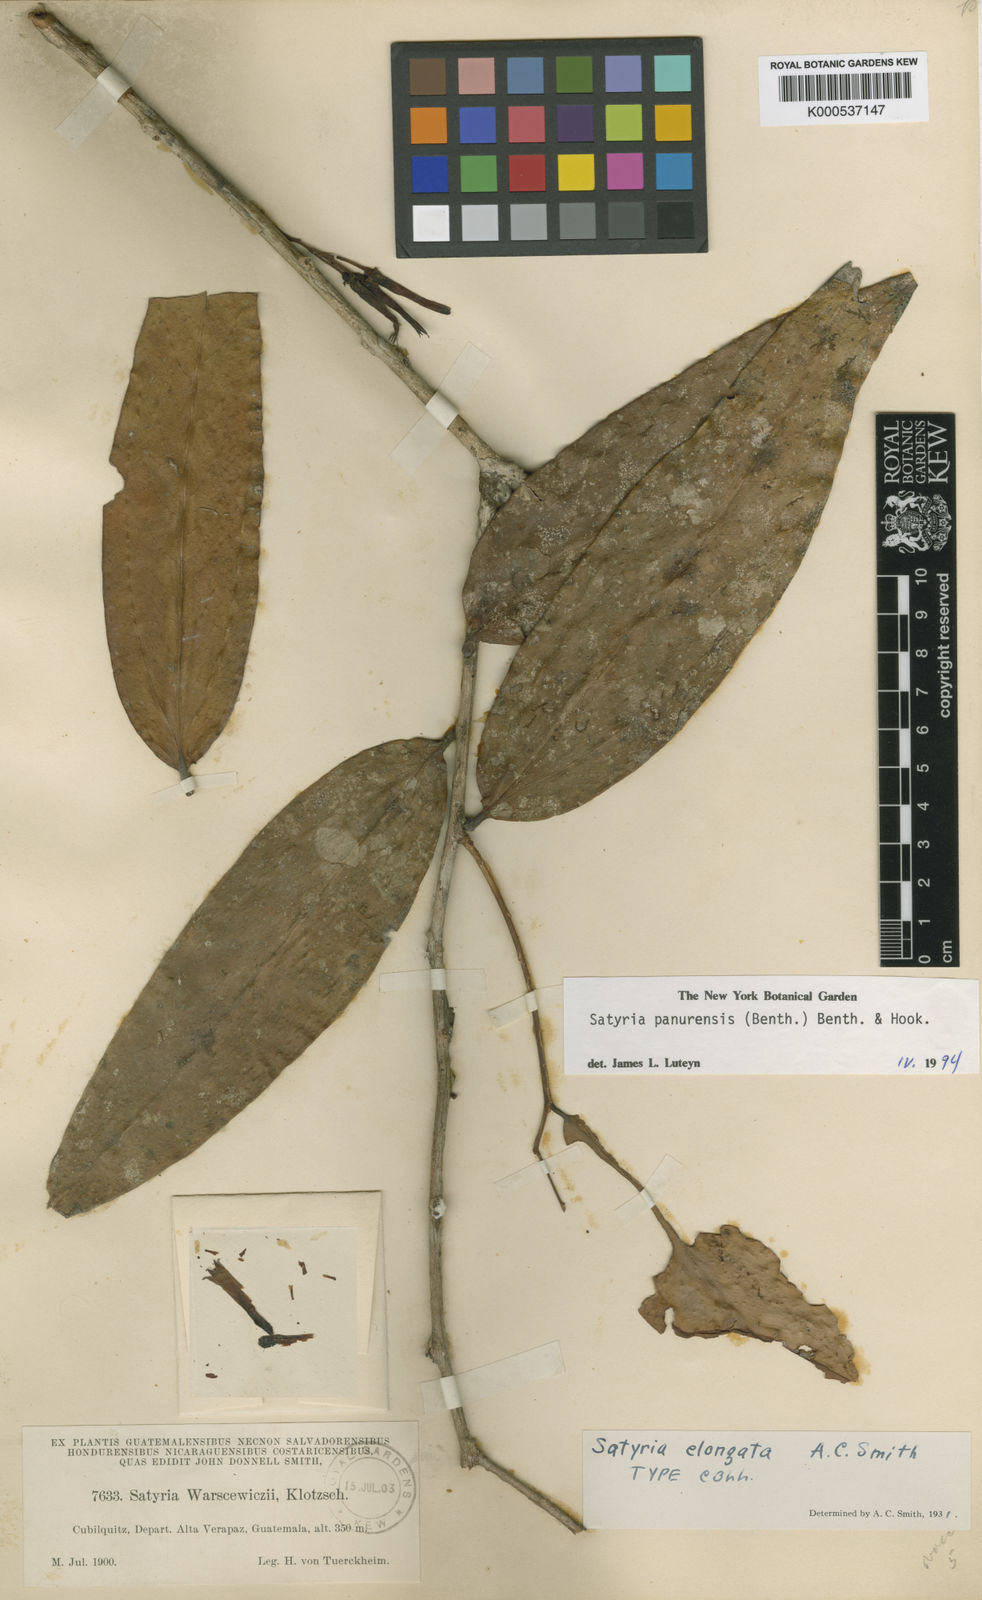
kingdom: Plantae
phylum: Tracheophyta
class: Magnoliopsida
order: Ericales
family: Ericaceae
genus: Satyria
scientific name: Satyria panurensis
